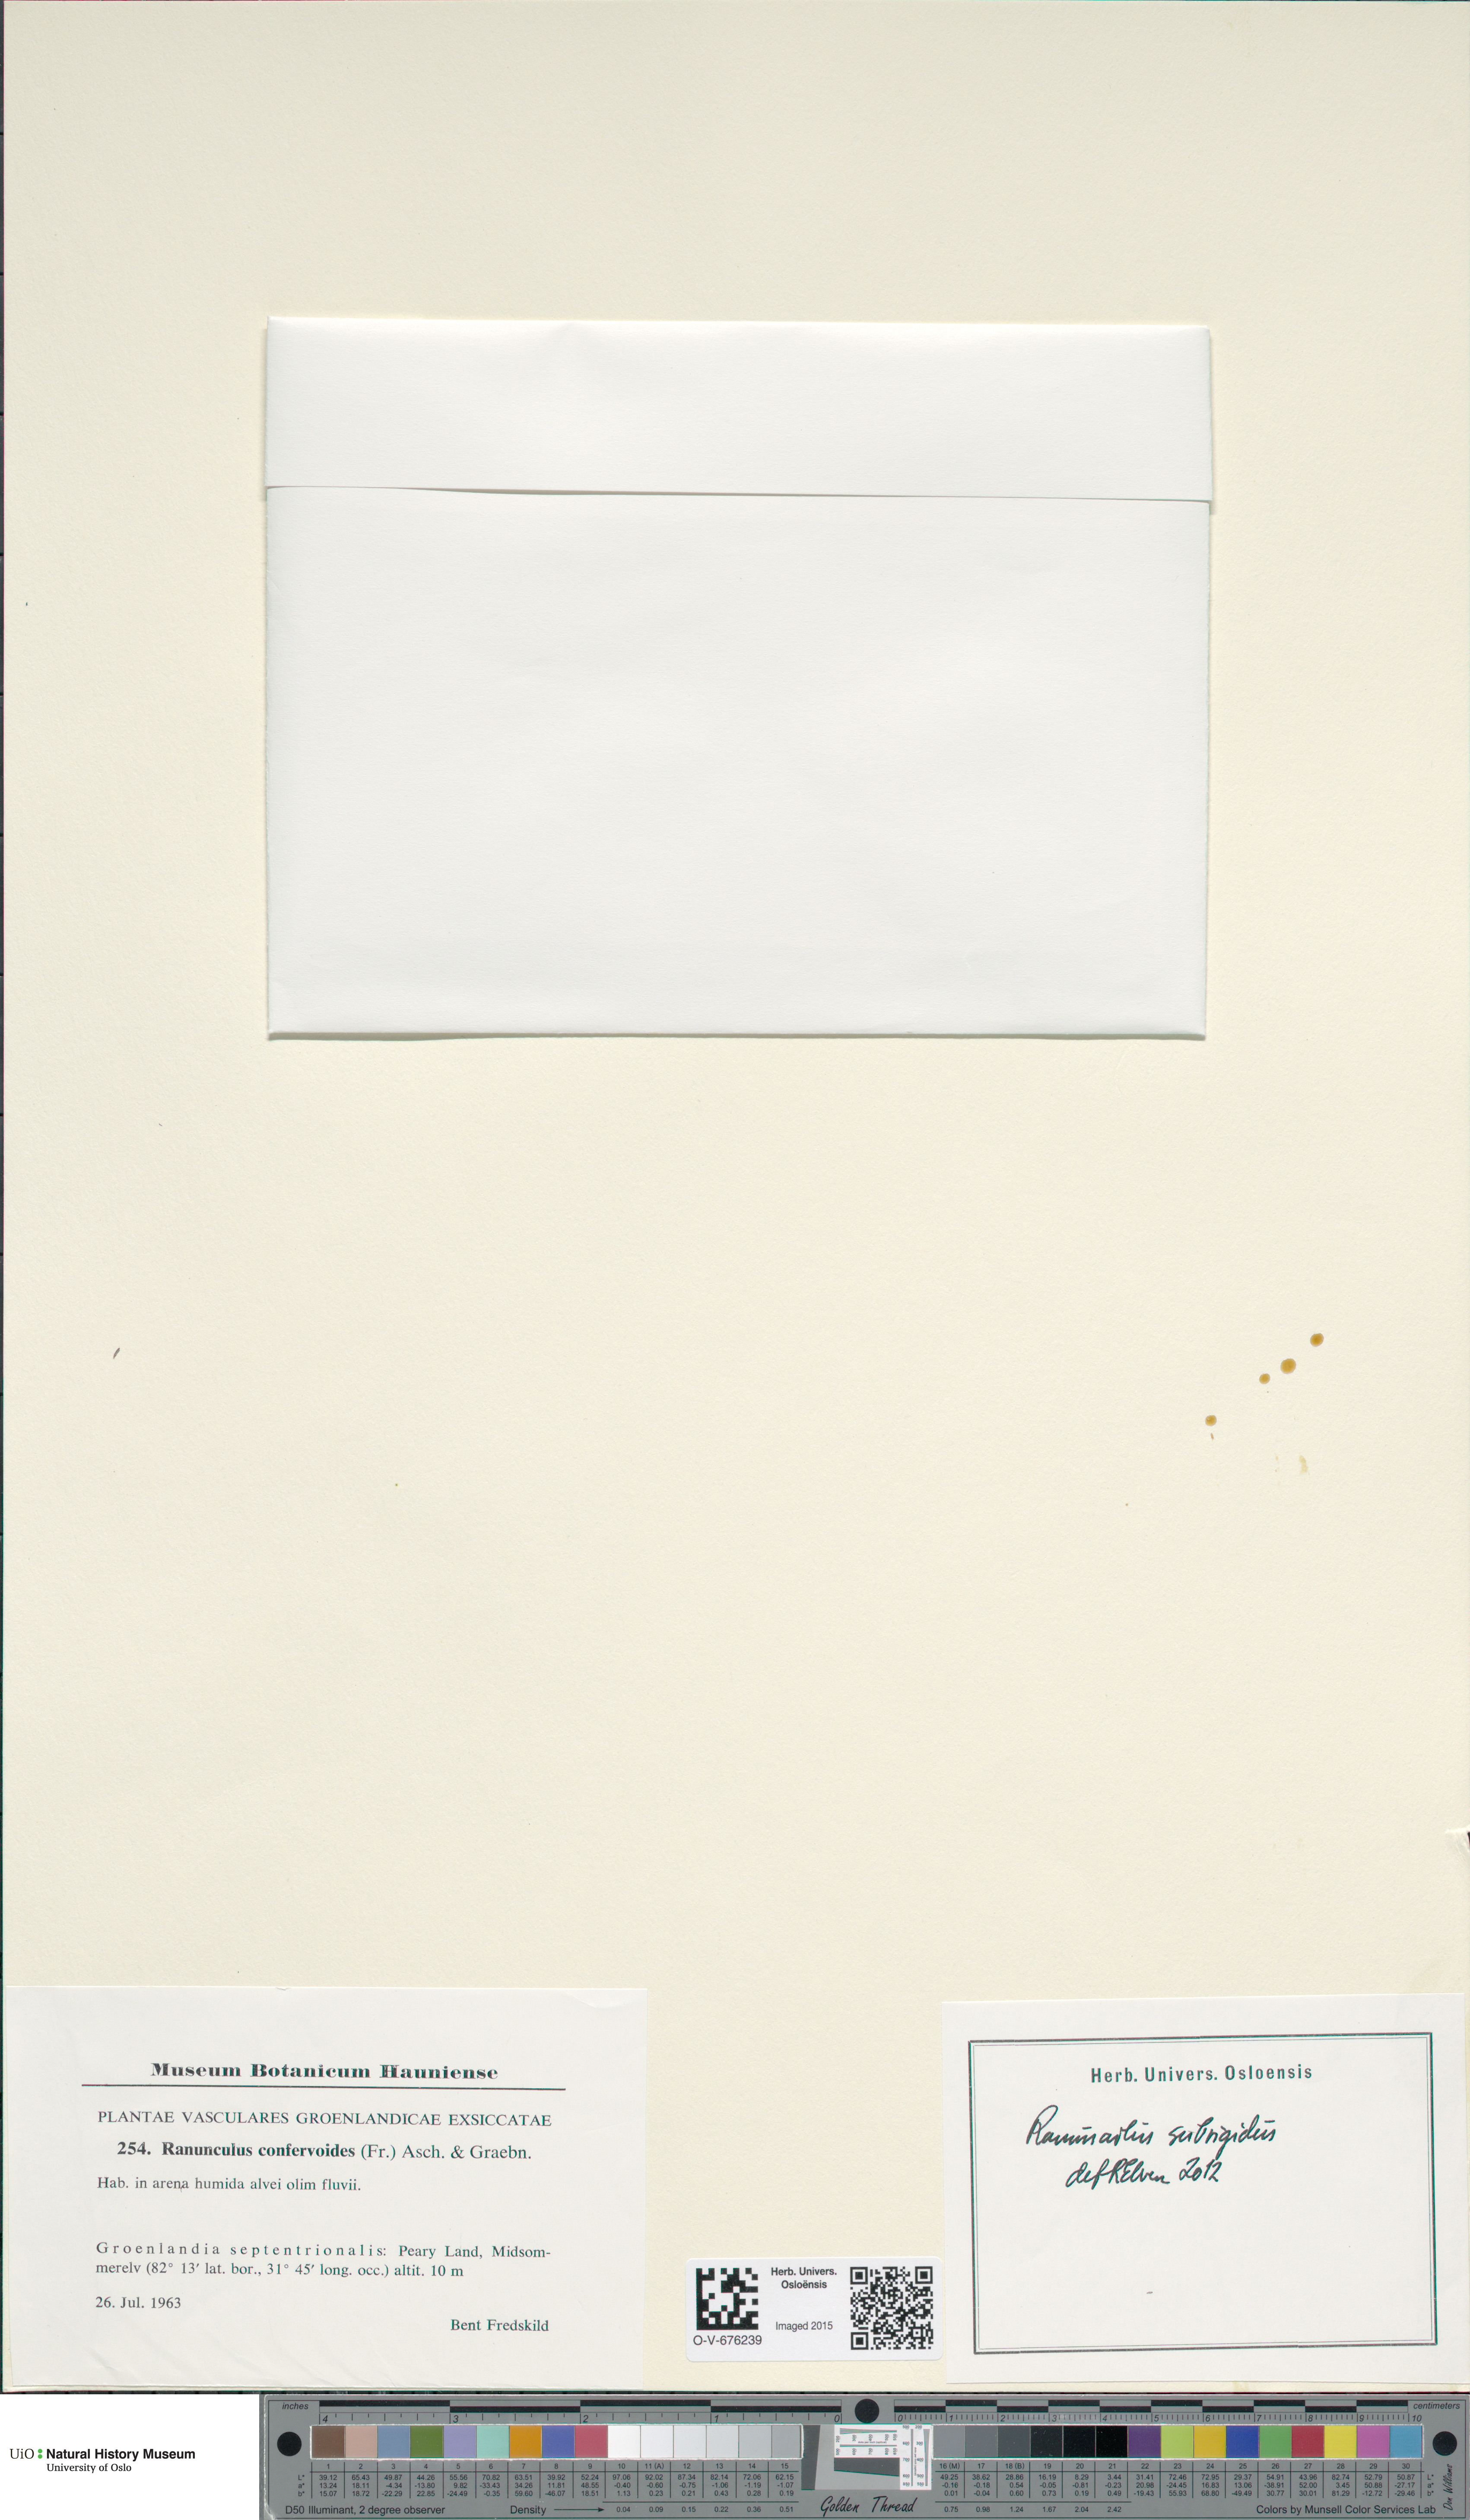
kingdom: Plantae
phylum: Tracheophyta
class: Magnoliopsida
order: Ranunculales
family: Ranunculaceae
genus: Ranunculus
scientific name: Ranunculus longirostris
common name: Curly white water-crowfoot
